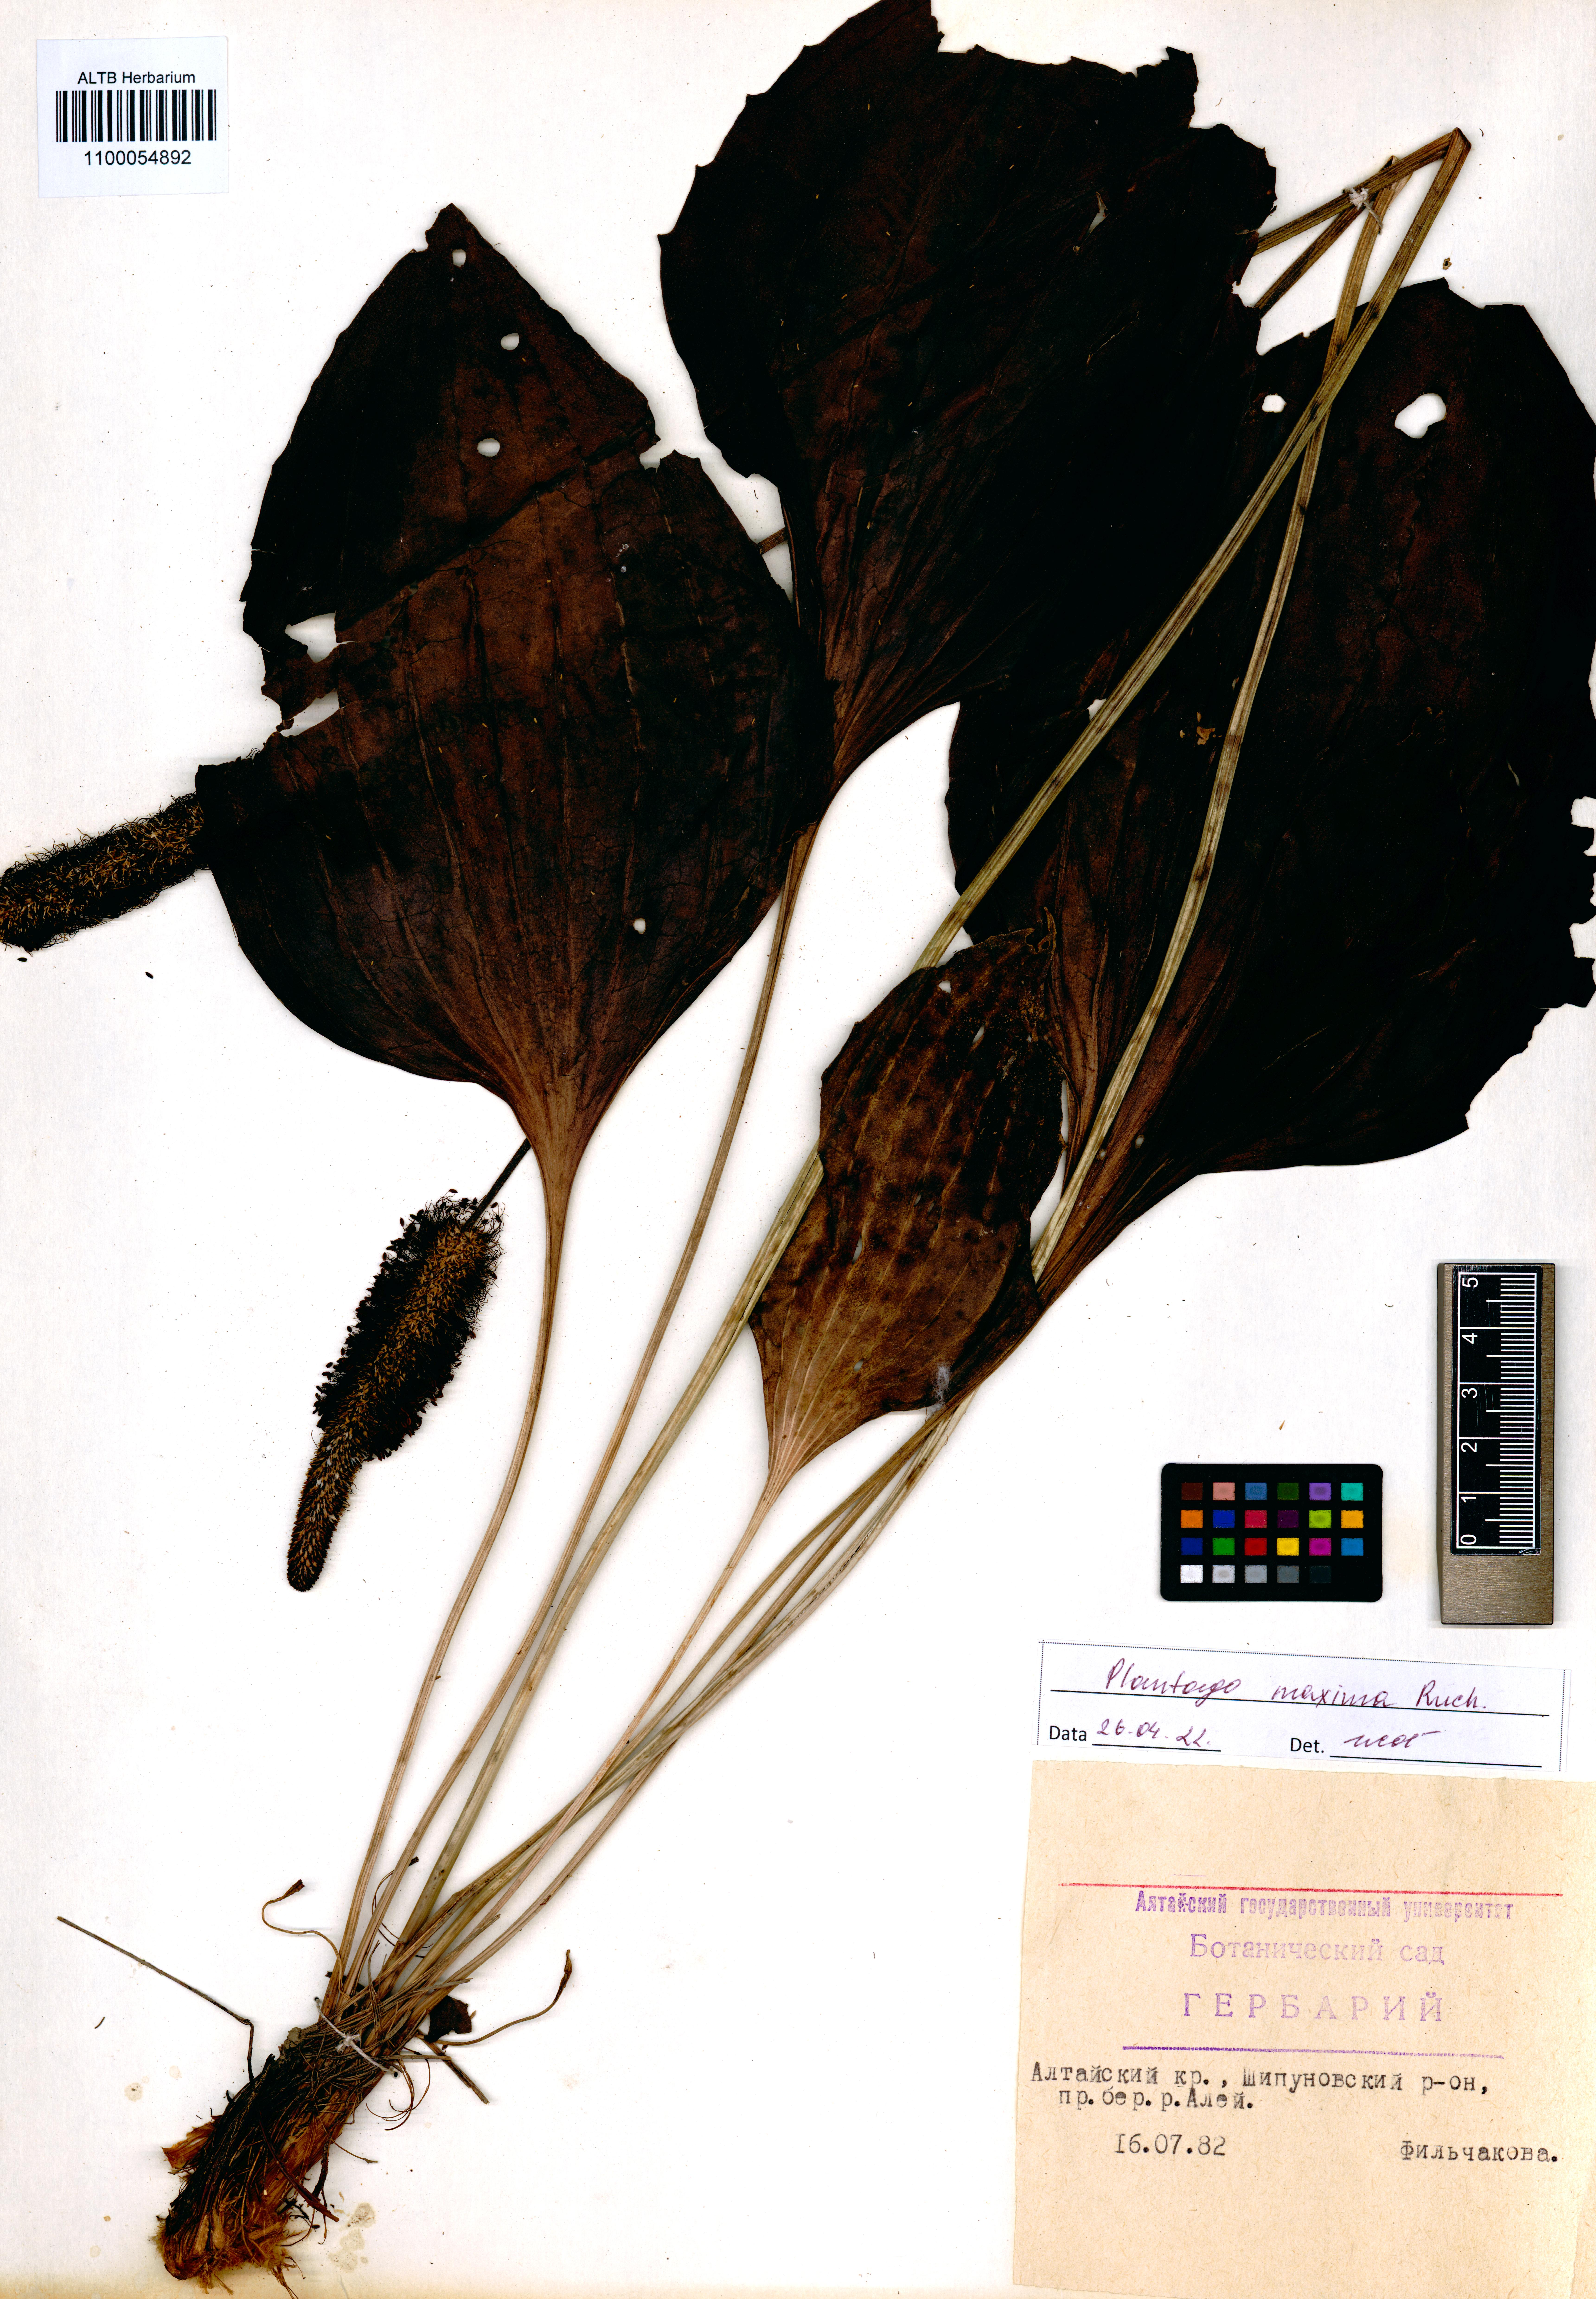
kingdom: Plantae
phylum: Tracheophyta
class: Magnoliopsida
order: Lamiales
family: Plantaginaceae
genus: Plantago
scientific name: Plantago maxima
